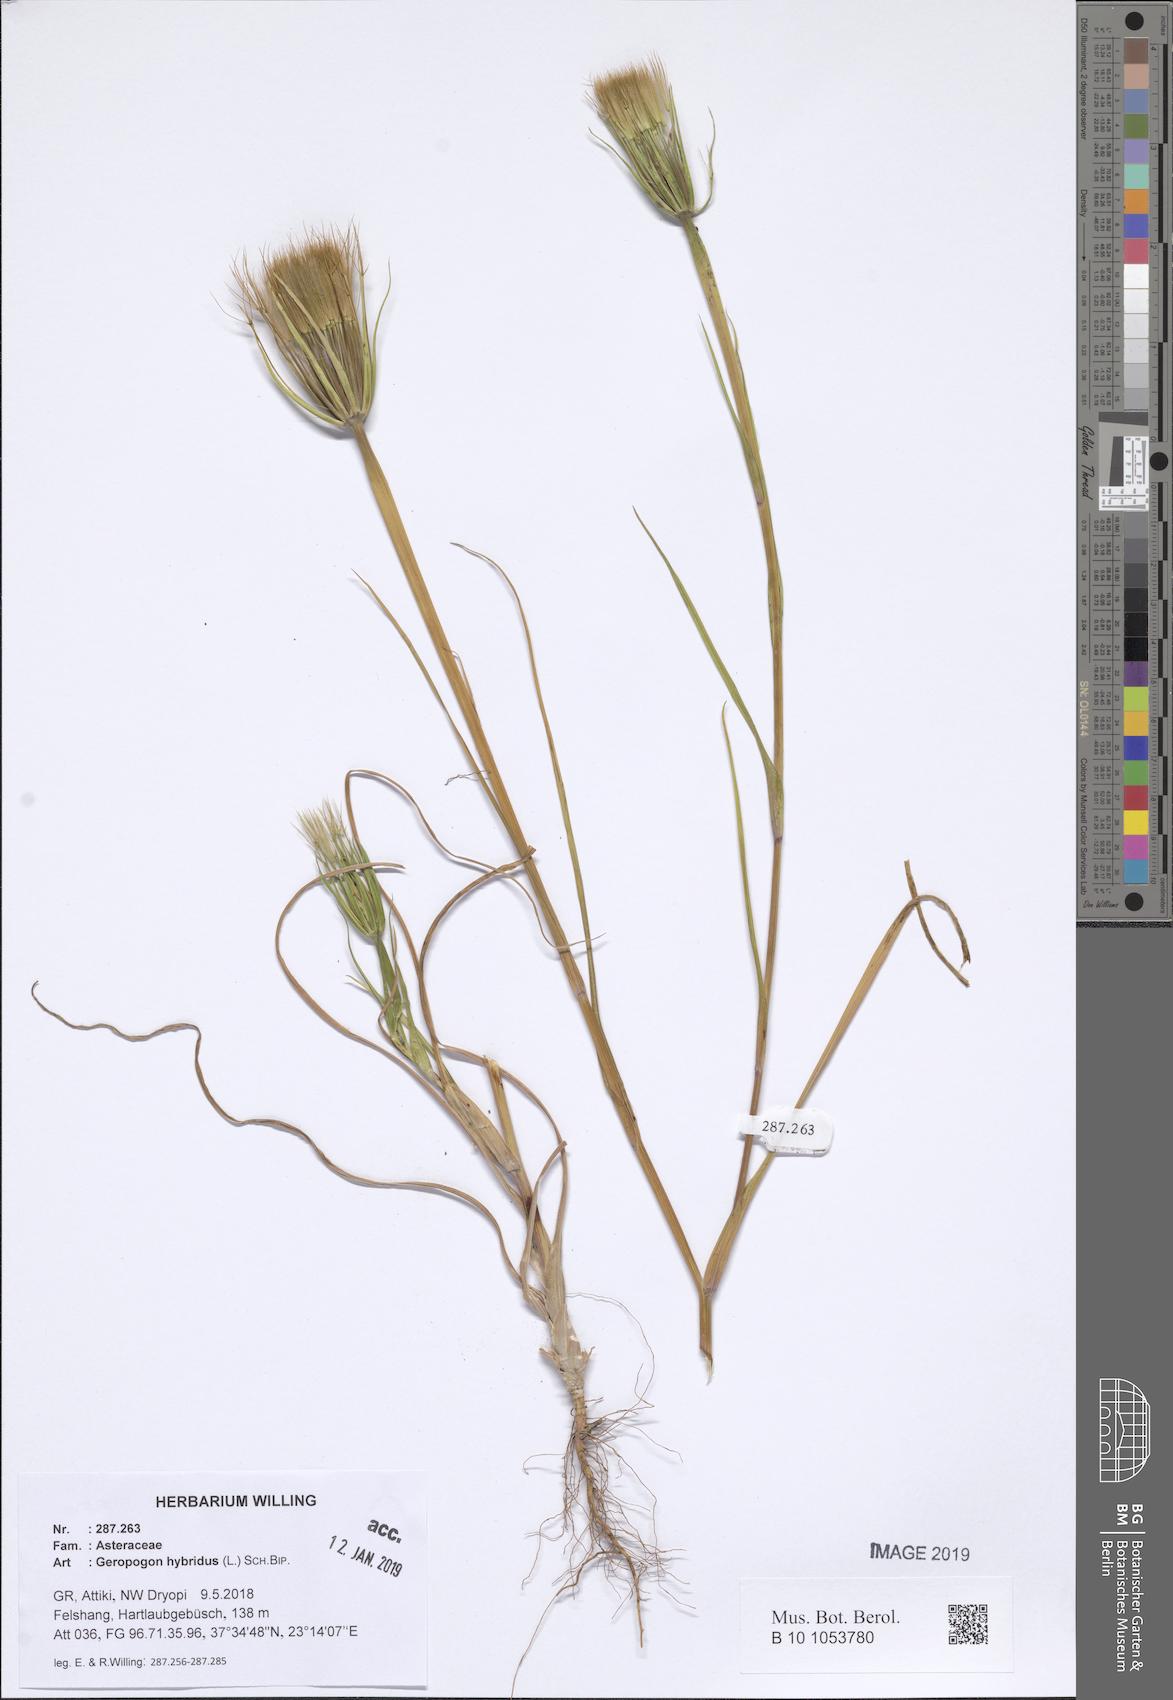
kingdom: Plantae
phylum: Tracheophyta
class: Magnoliopsida
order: Asterales
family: Asteraceae
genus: Geropogon
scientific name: Geropogon hybridus
